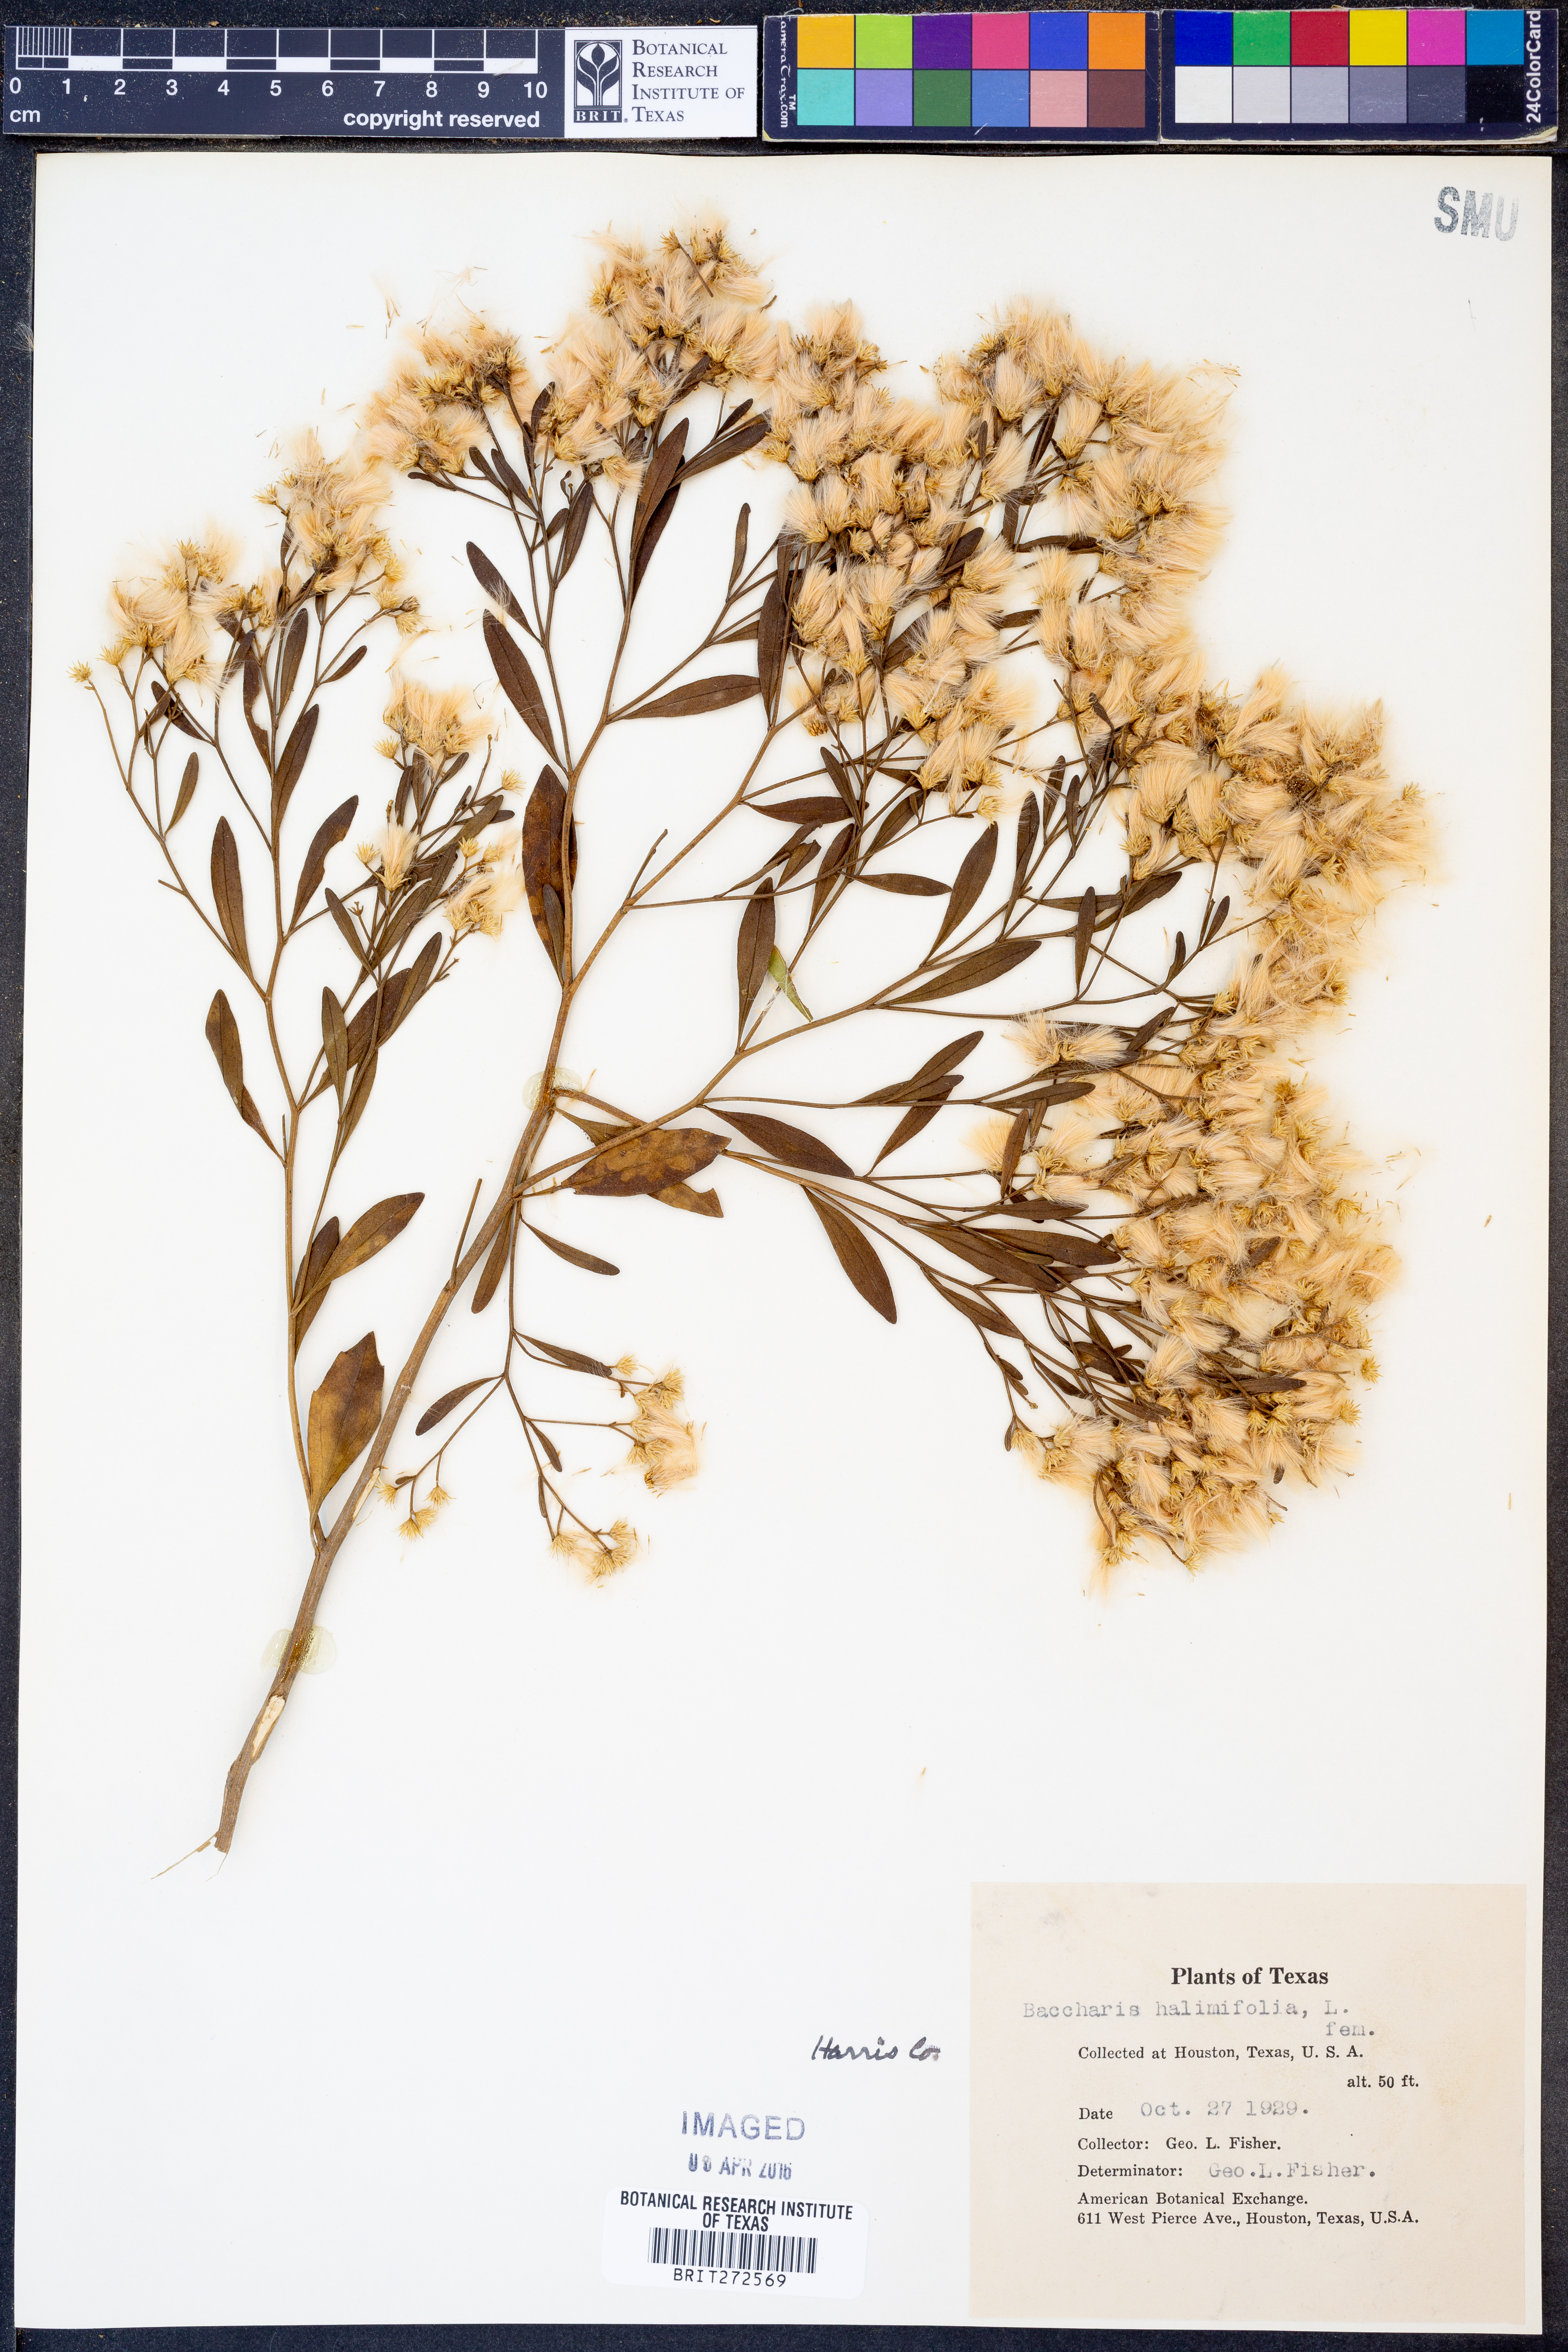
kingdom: Plantae
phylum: Tracheophyta
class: Magnoliopsida
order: Asterales
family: Asteraceae
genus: Nidorella
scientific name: Nidorella ivifolia
